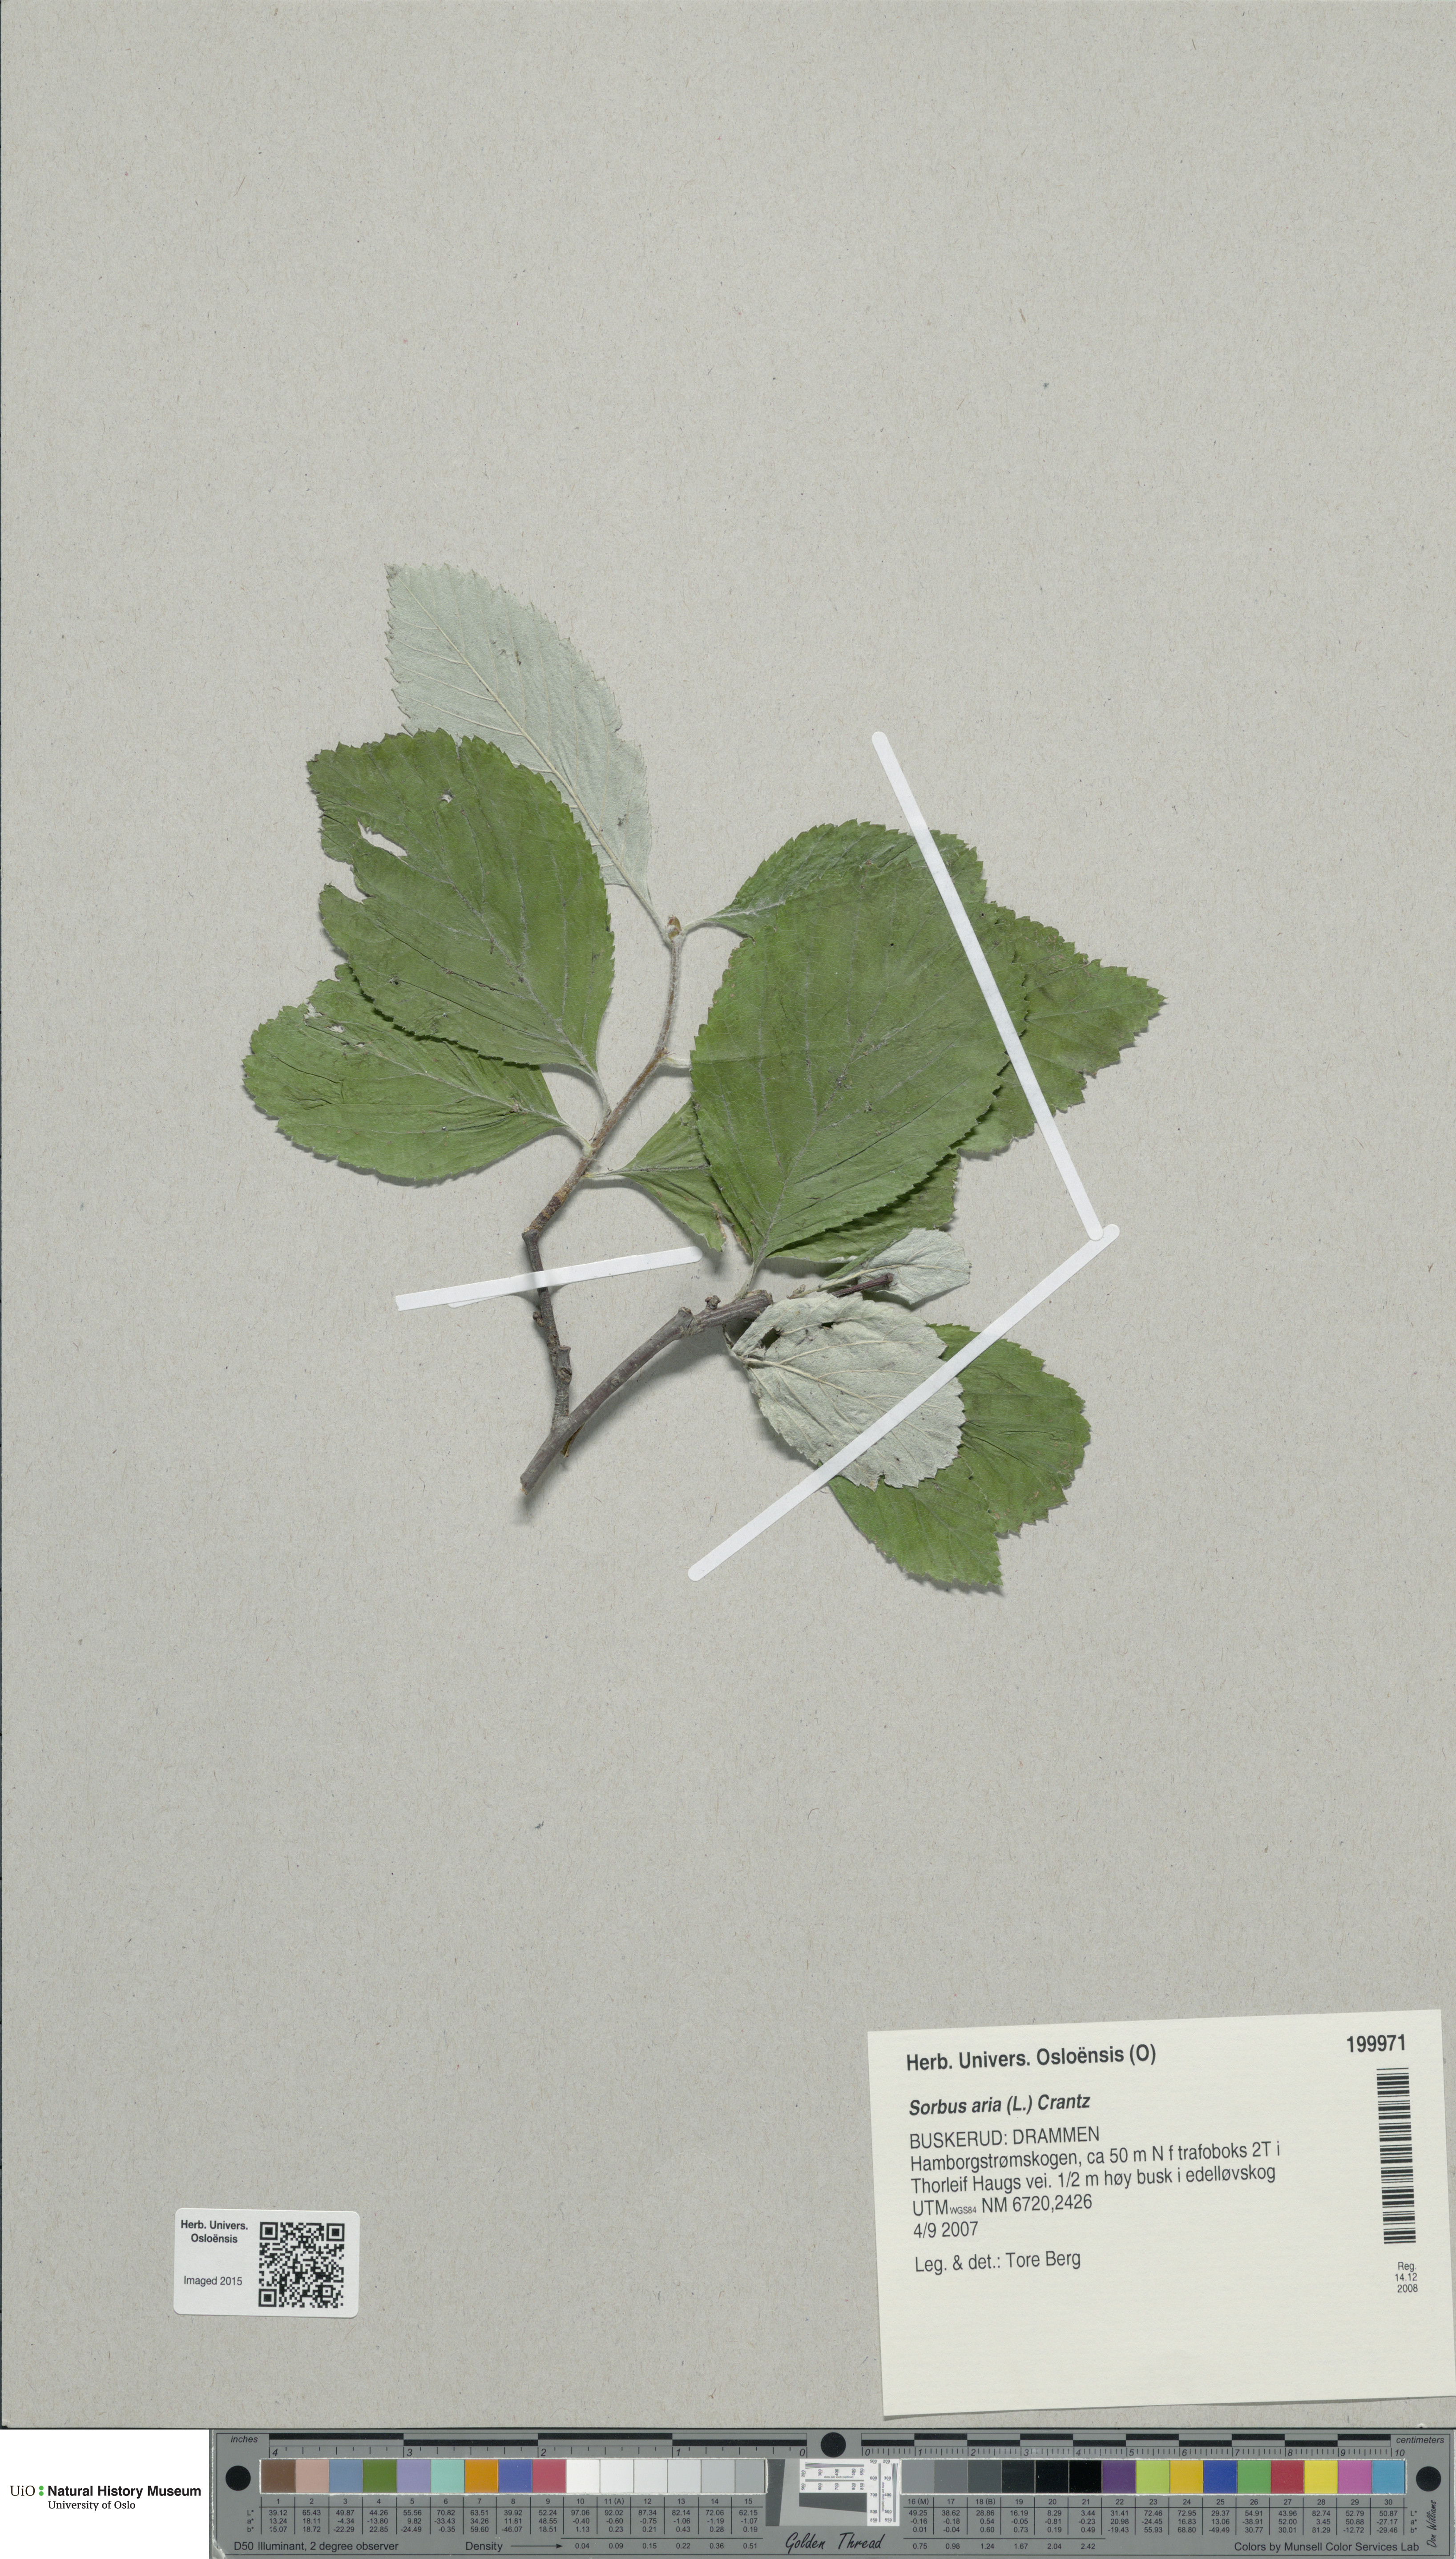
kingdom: Plantae
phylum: Tracheophyta
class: Magnoliopsida
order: Rosales
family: Rosaceae
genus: Aria
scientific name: Aria edulis
